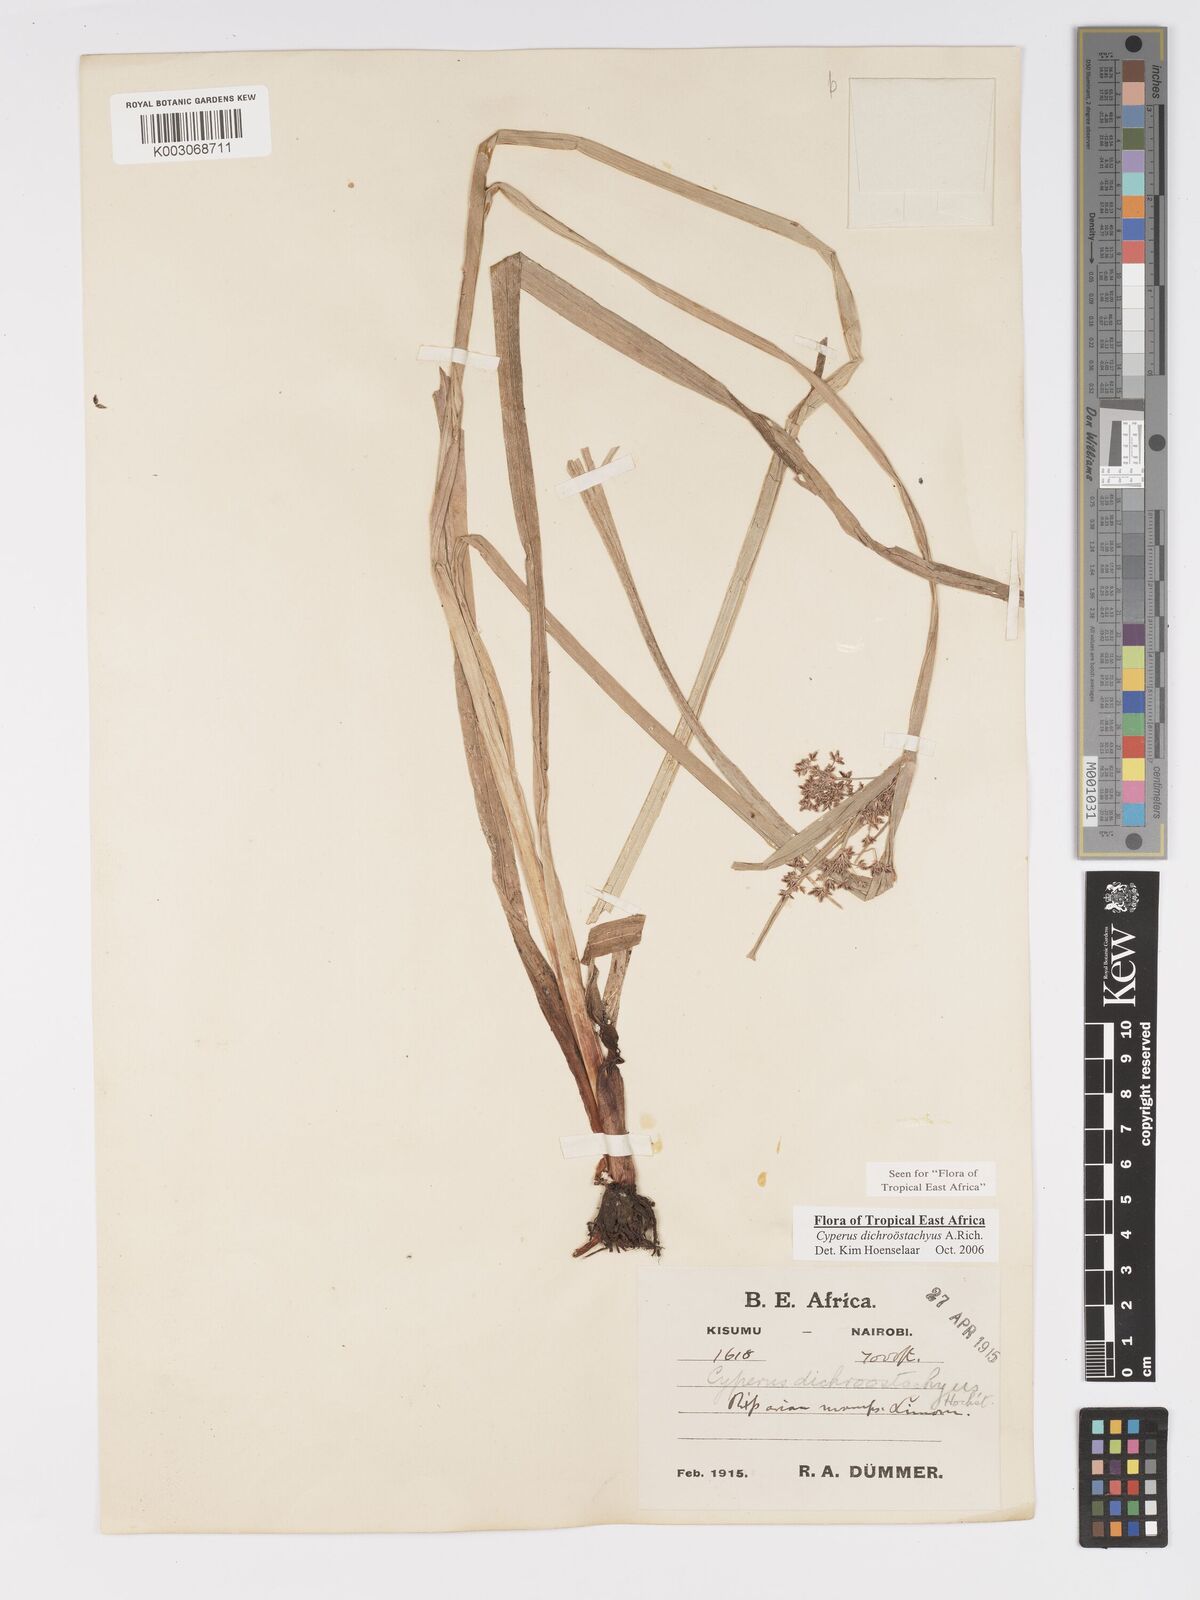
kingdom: Plantae
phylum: Tracheophyta
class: Liliopsida
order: Poales
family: Cyperaceae
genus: Cyperus
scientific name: Cyperus dichrostachyus
